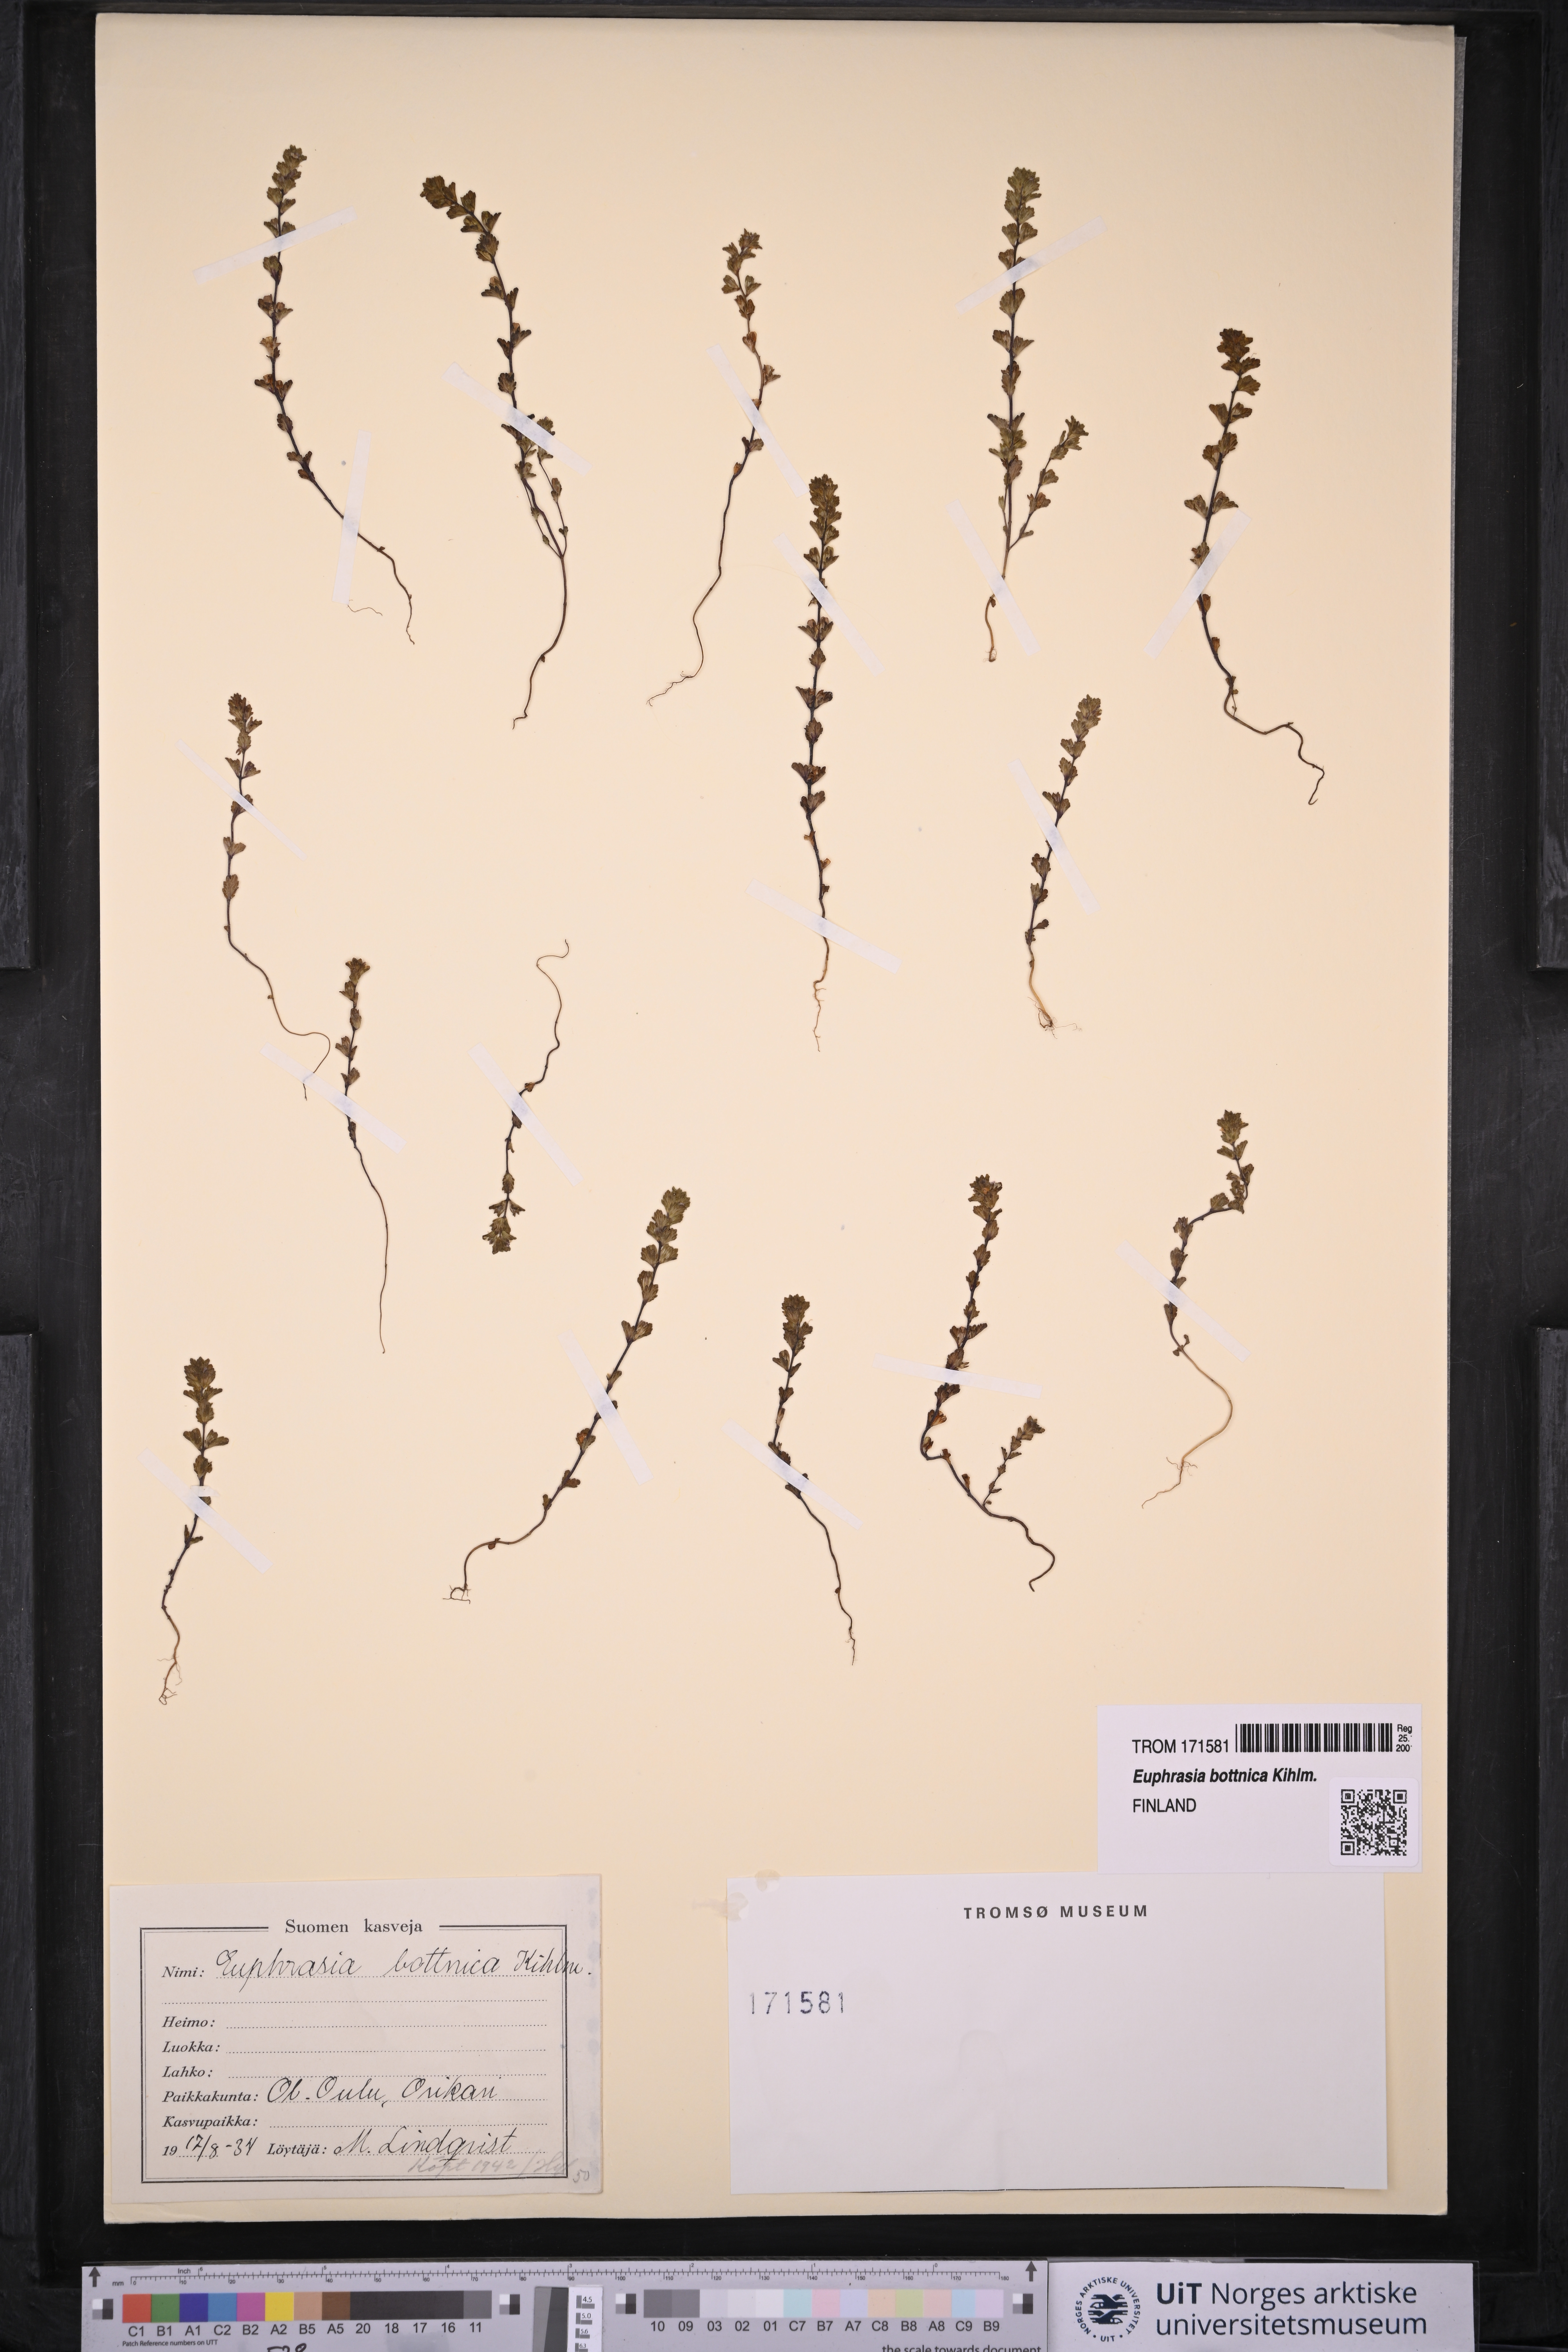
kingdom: Plantae
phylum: Tracheophyta
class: Magnoliopsida
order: Lamiales
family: Orobanchaceae
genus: Euphrasia
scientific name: Euphrasia bottnica
